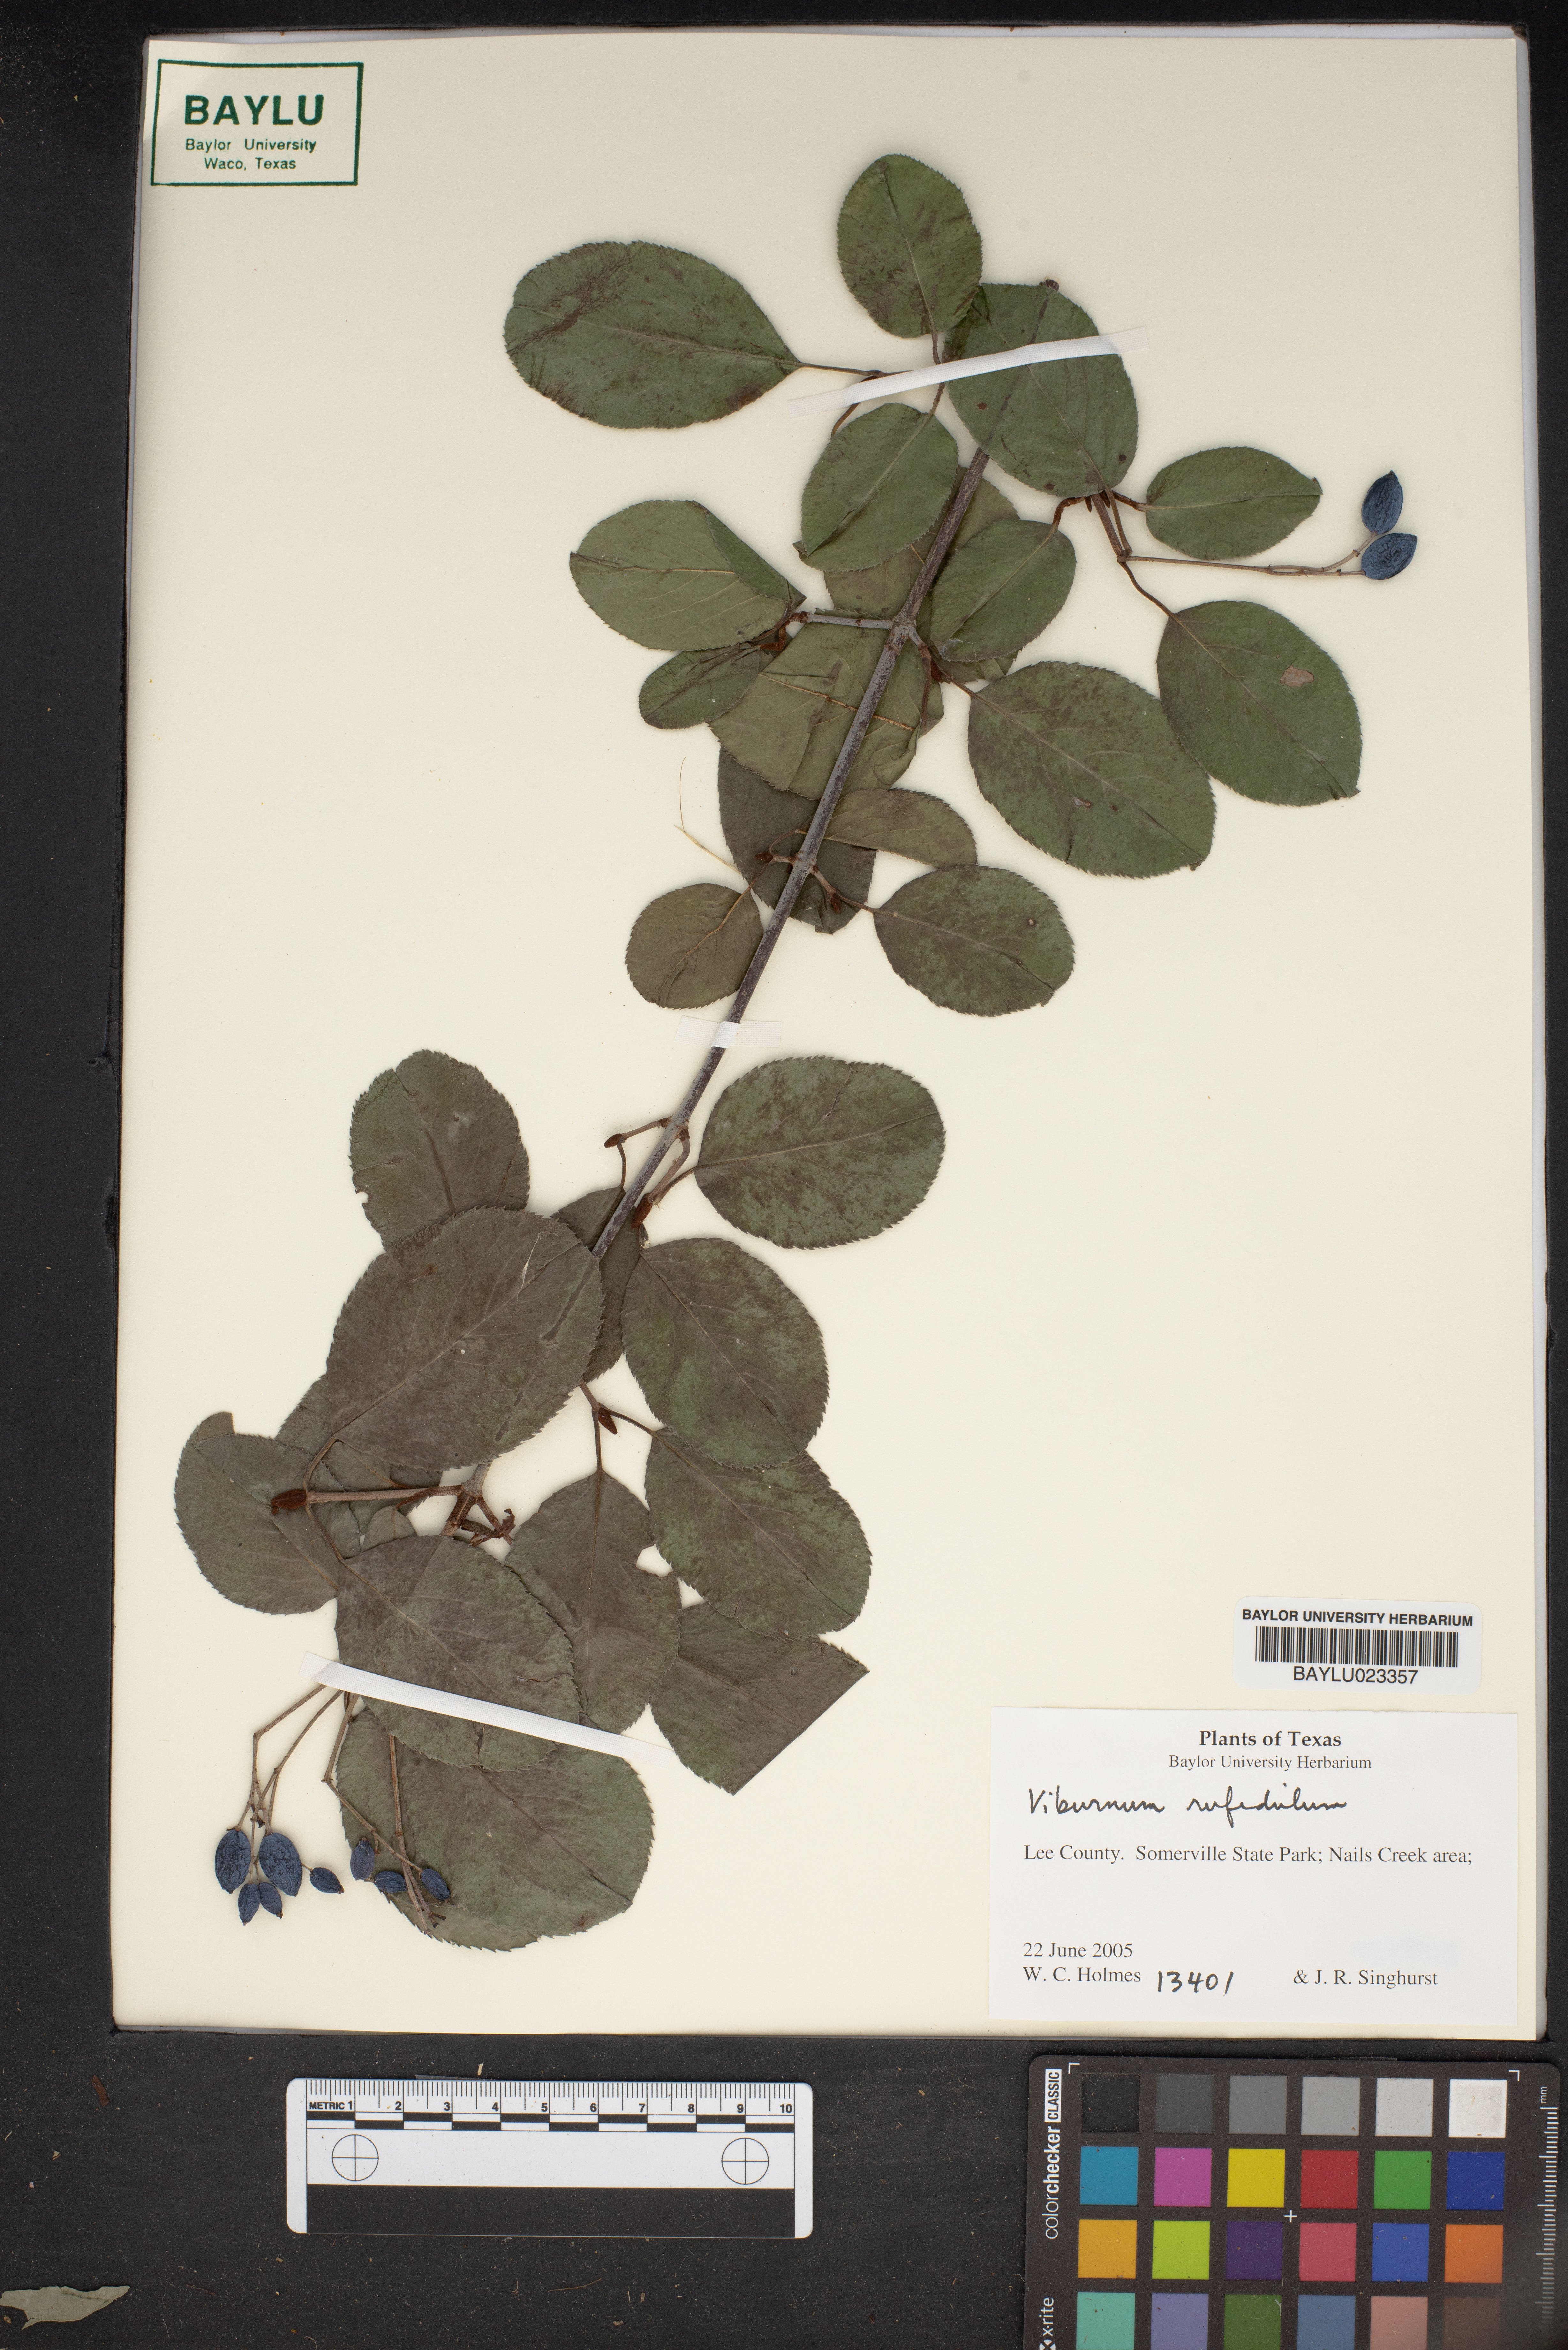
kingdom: Plantae
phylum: Tracheophyta
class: Magnoliopsida
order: Dipsacales
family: Viburnaceae
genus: Viburnum
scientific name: Viburnum rufidulum
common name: Blue haw
